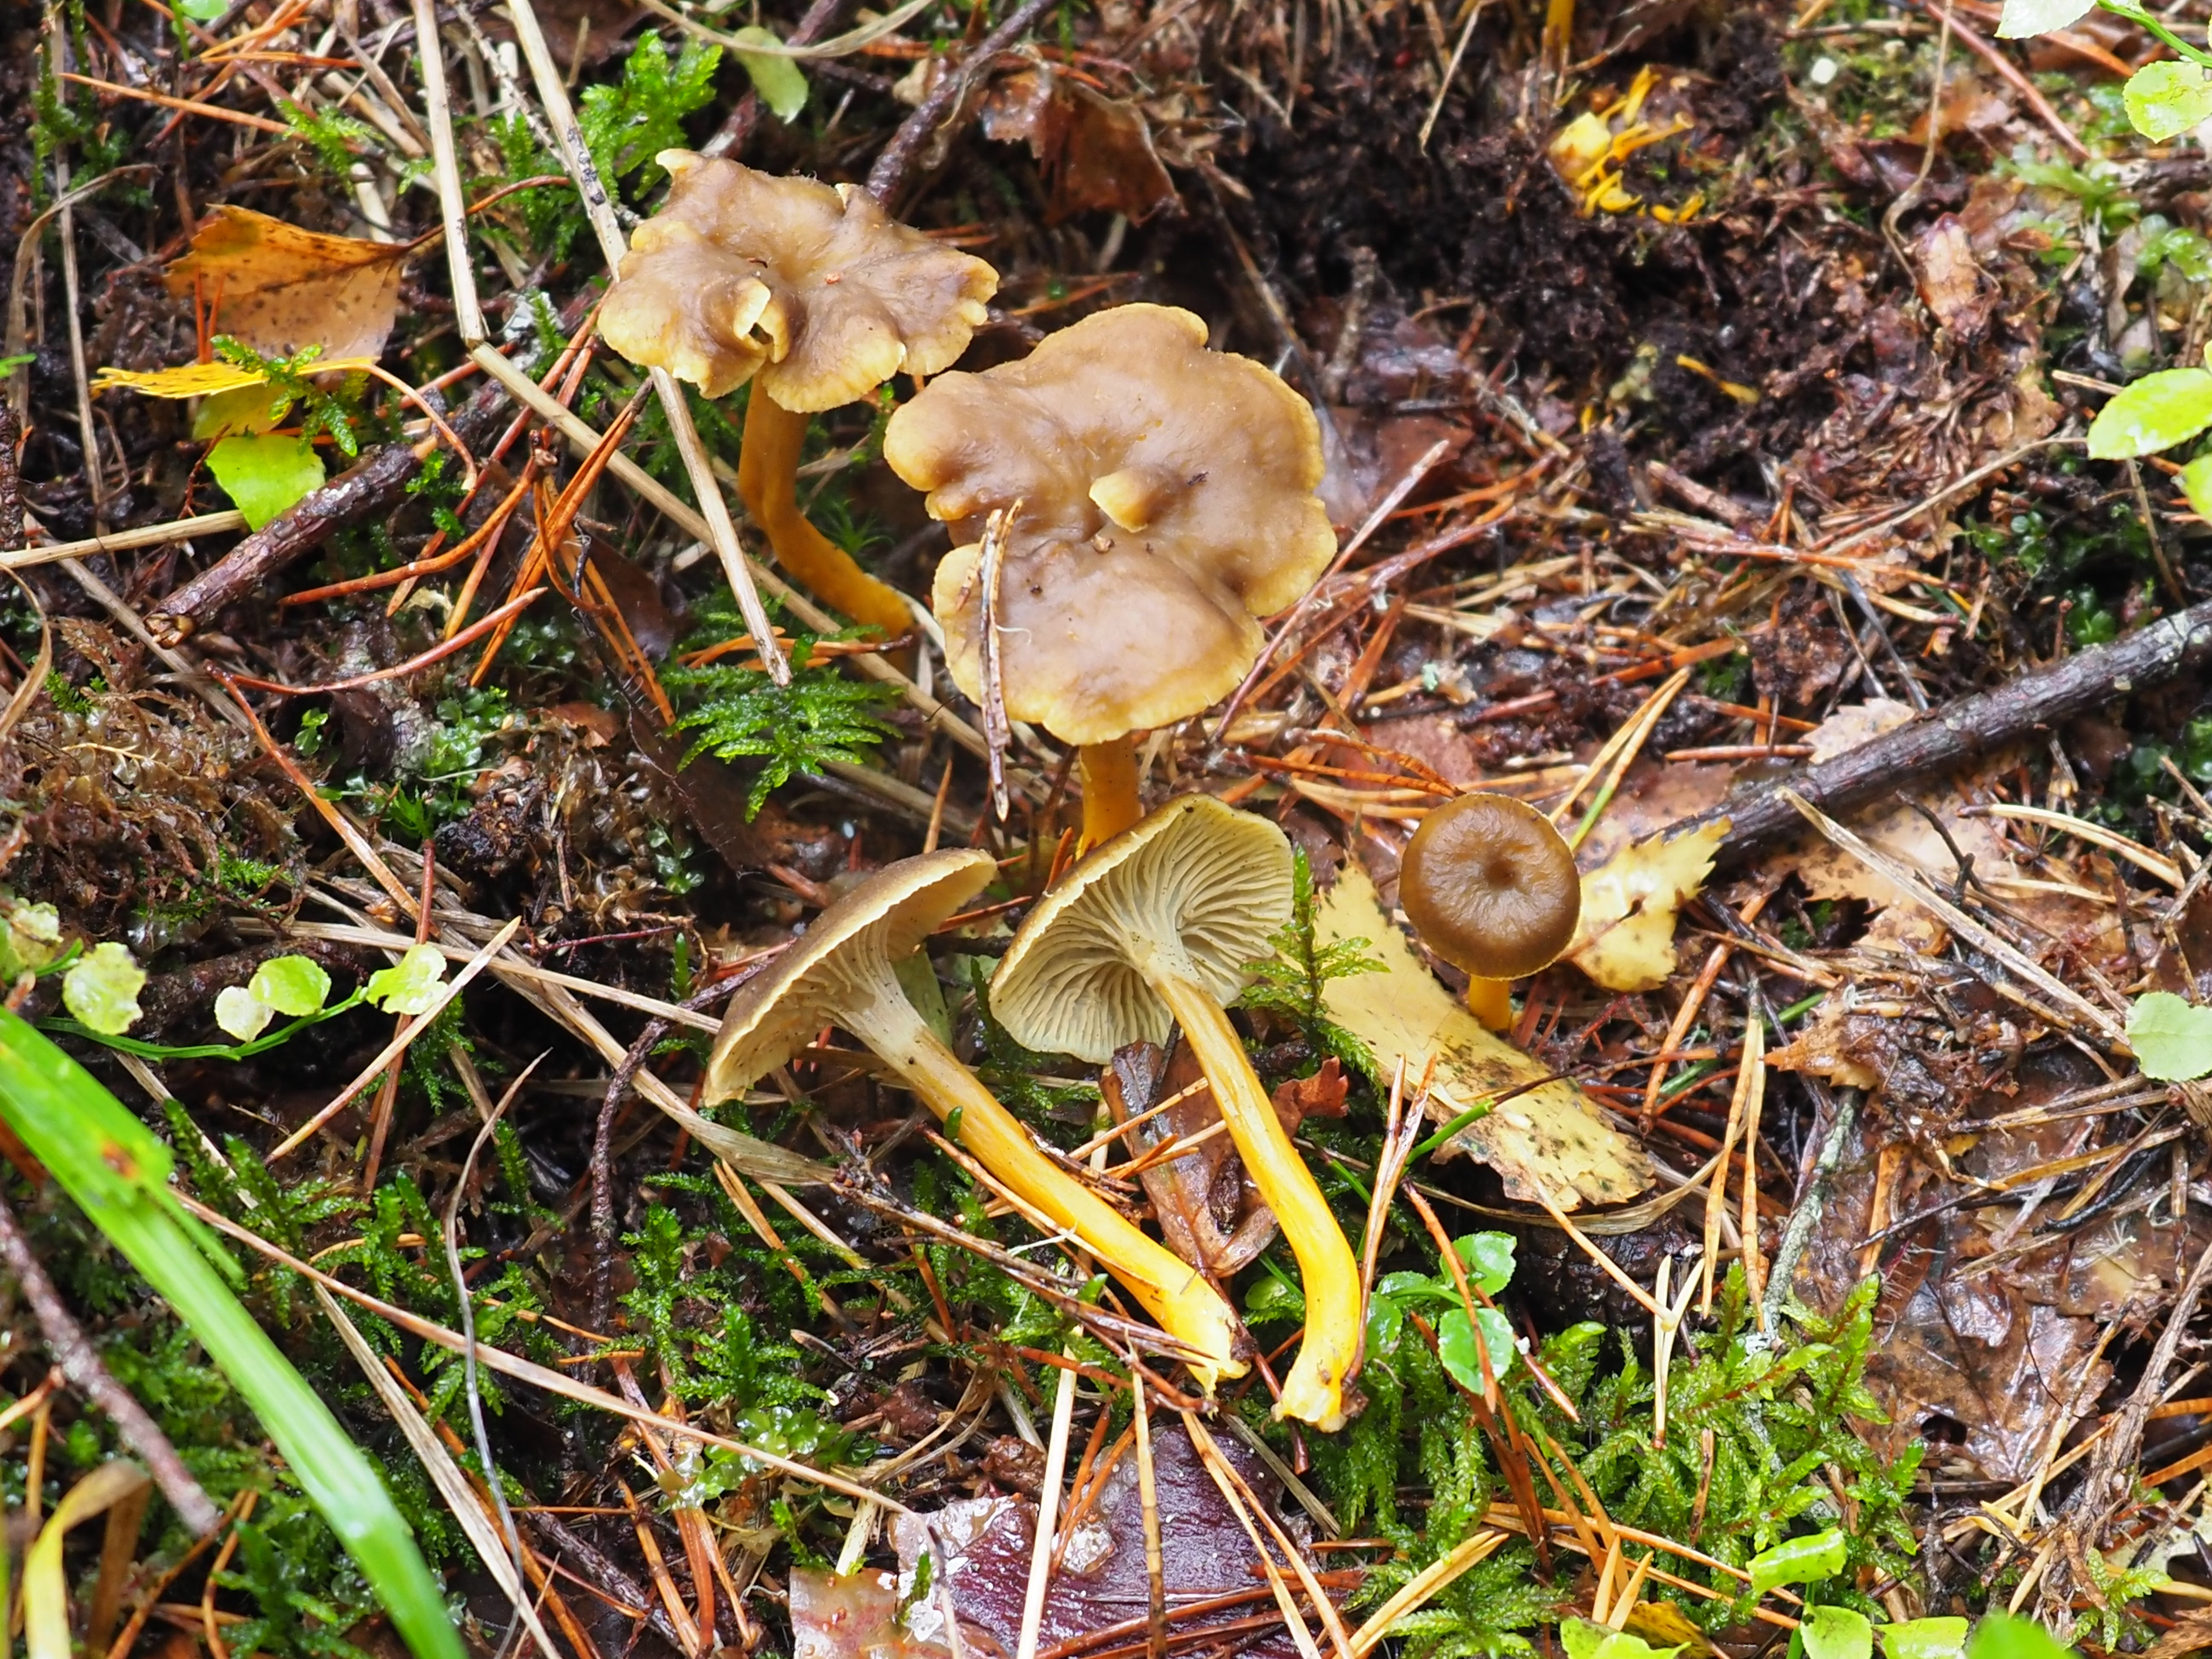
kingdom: Fungi
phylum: Basidiomycota
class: Agaricomycetes
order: Cantharellales
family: Hydnaceae
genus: Craterellus
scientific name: Craterellus tubaeformis
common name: Yellowfoot
